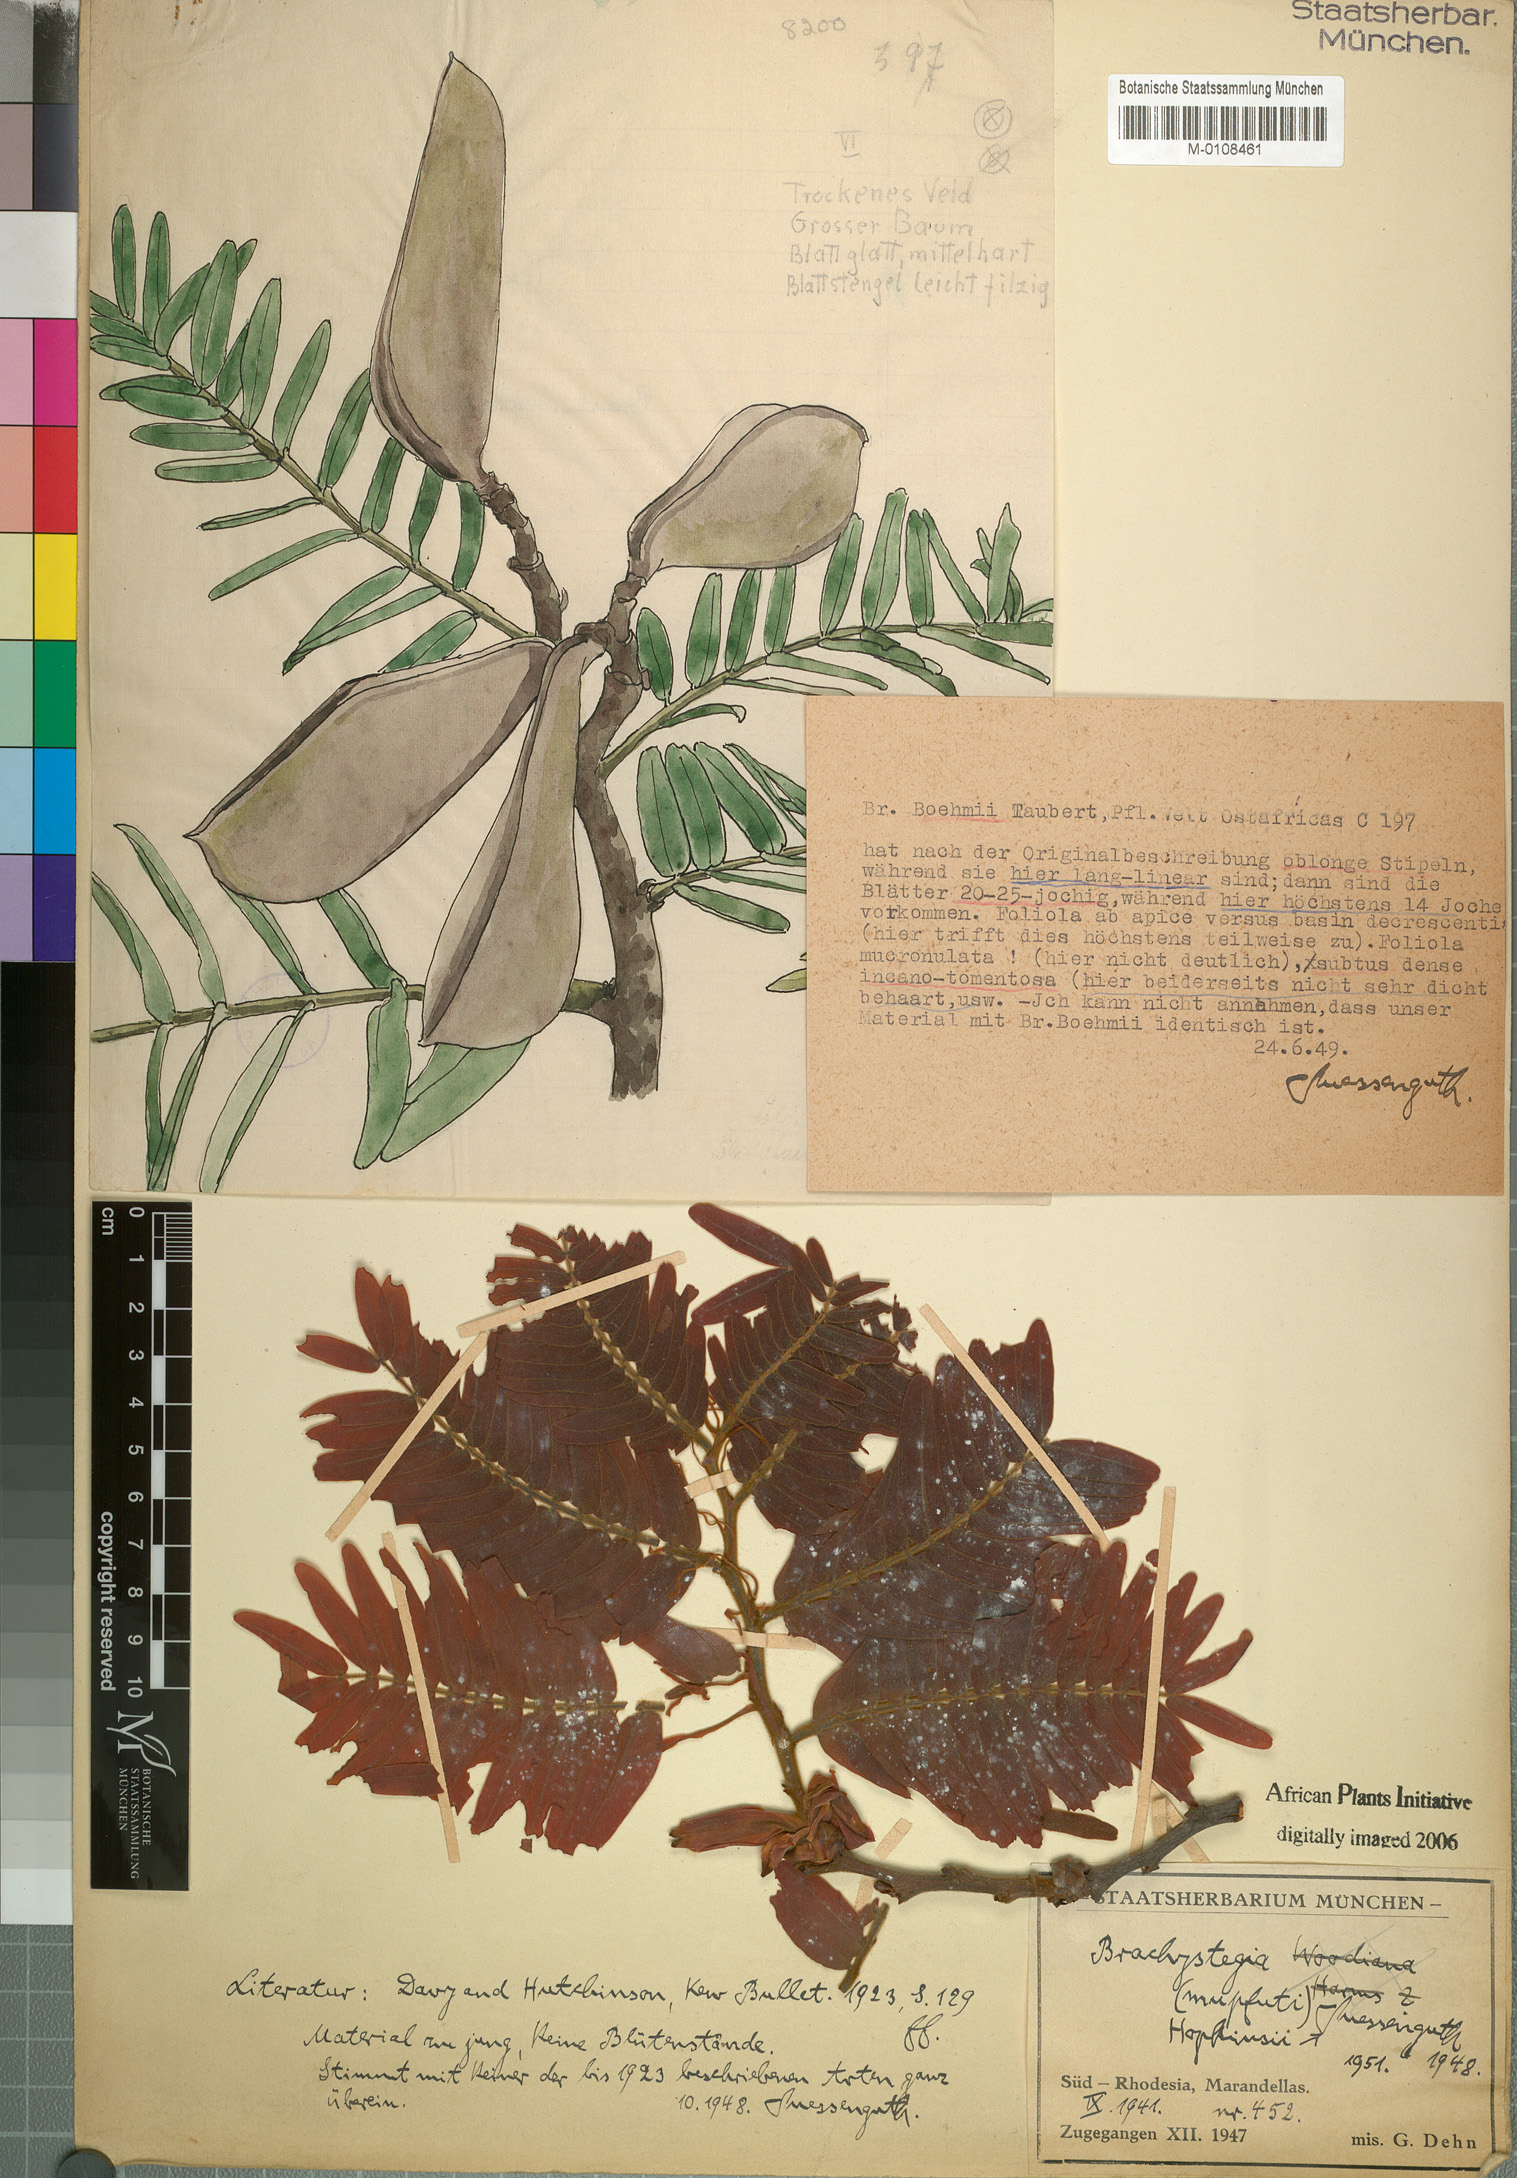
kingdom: Plantae
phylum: Tracheophyta
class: Magnoliopsida
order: Fabales
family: Fabaceae
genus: Brachystegia
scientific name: Brachystegia boehmii
